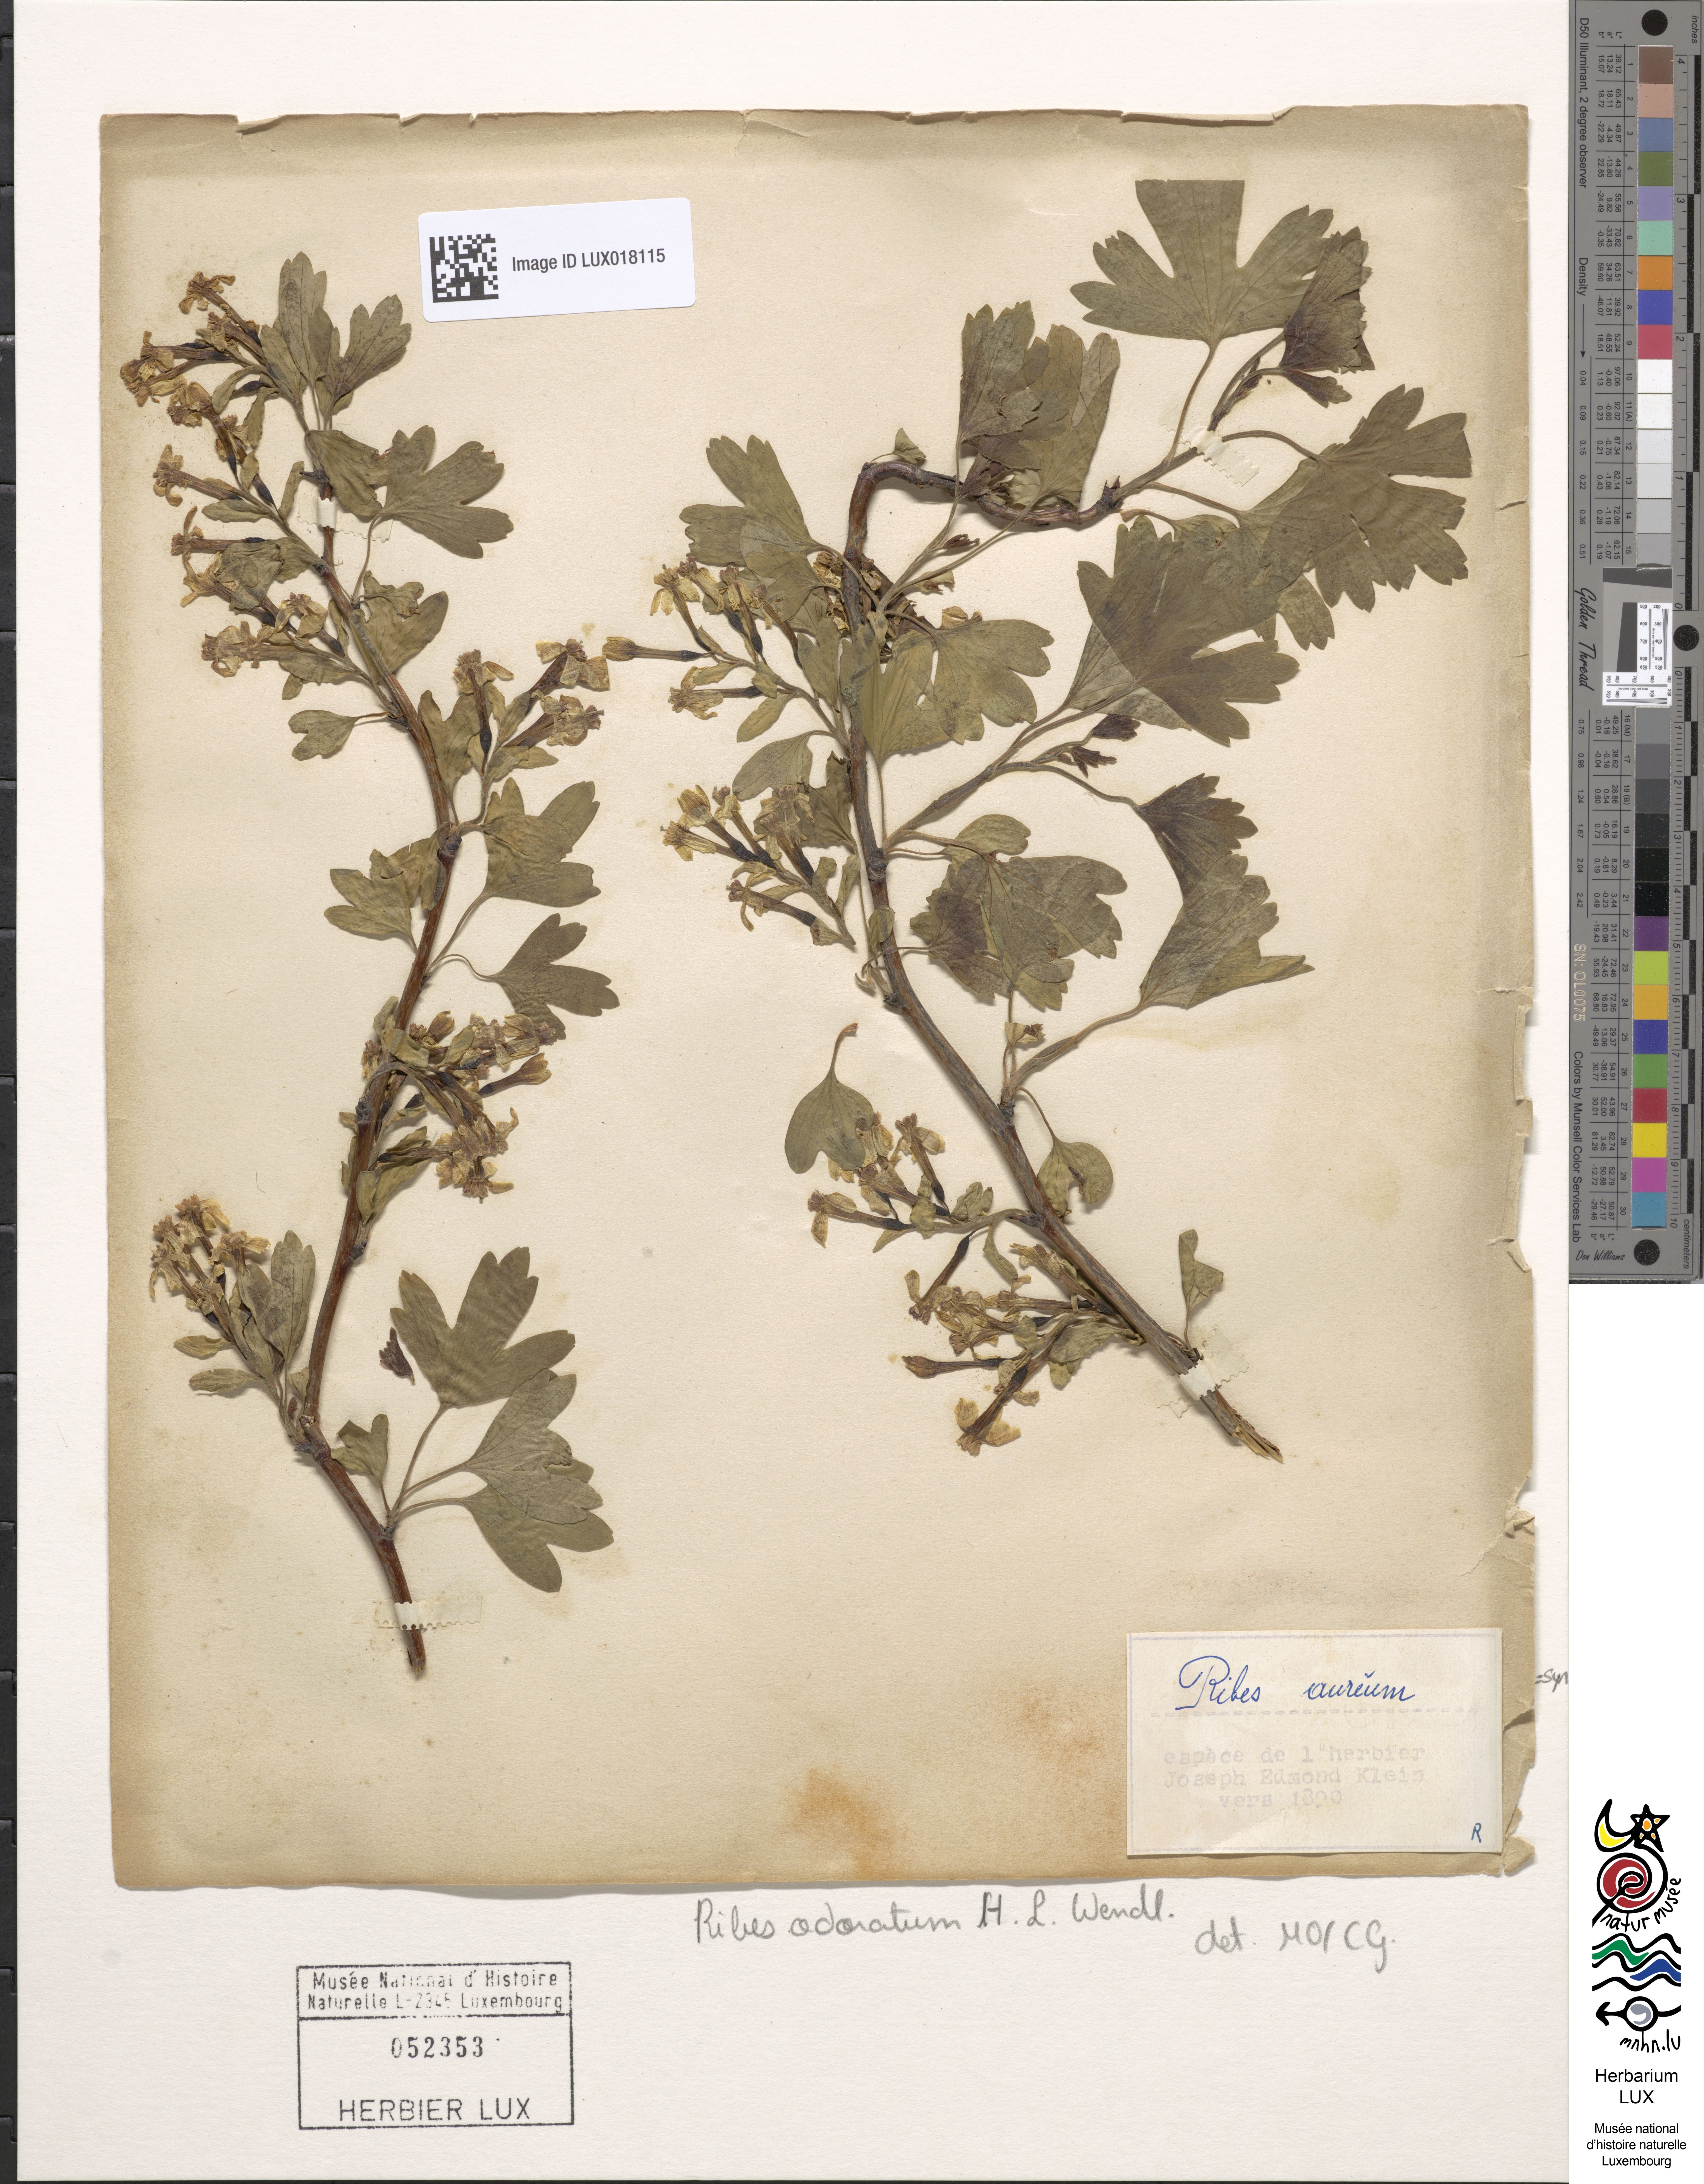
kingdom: Plantae
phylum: Tracheophyta
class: Magnoliopsida
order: Saxifragales
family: Grossulariaceae
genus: Ribes
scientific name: Ribes aureum
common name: Golden currant
